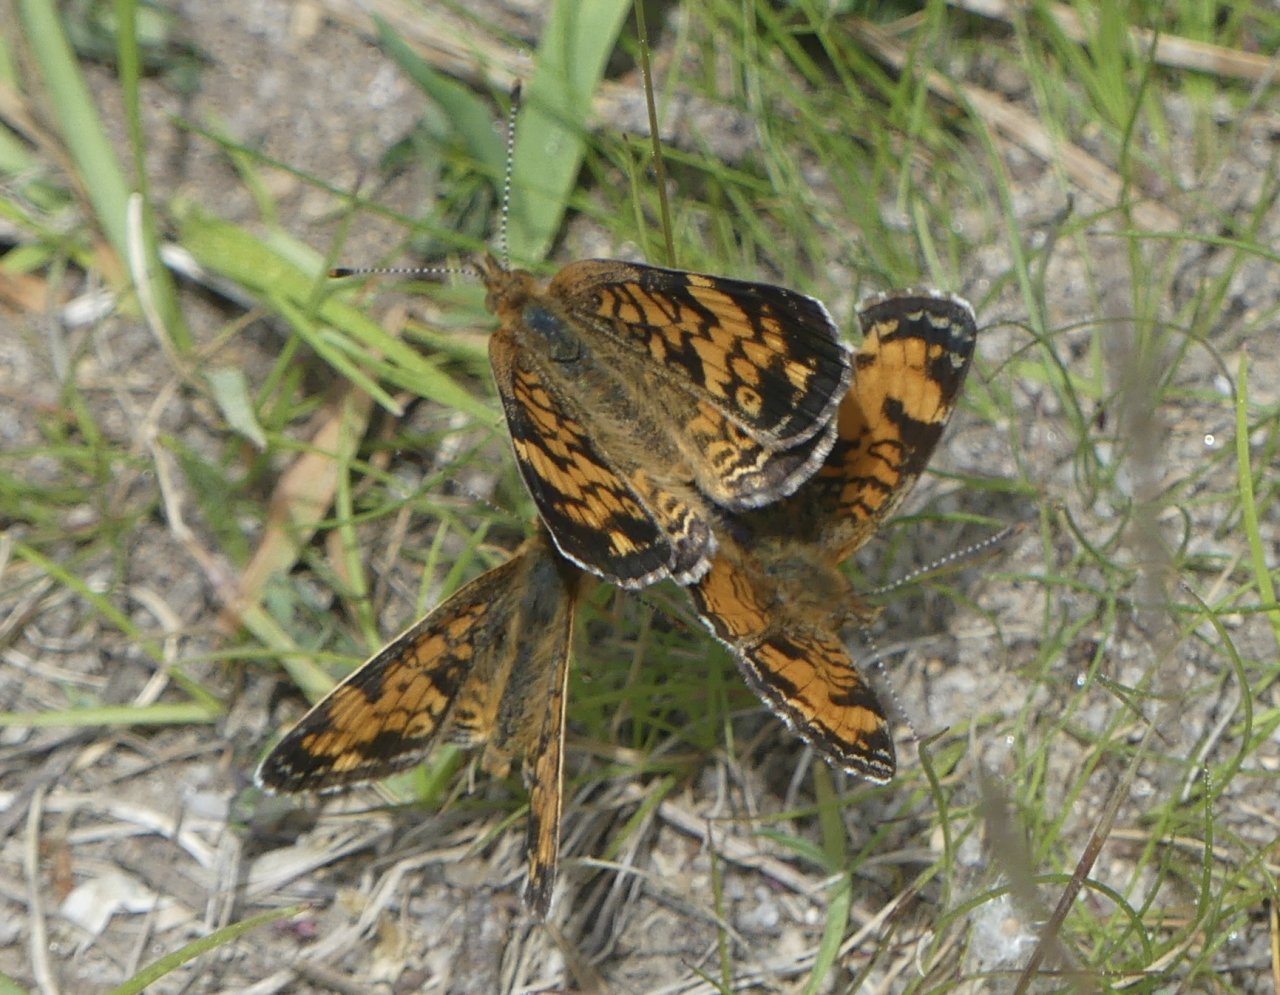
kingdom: Animalia
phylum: Arthropoda
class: Insecta
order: Lepidoptera
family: Nymphalidae
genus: Phyciodes
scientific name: Phyciodes tharos
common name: Pearl Crescent
